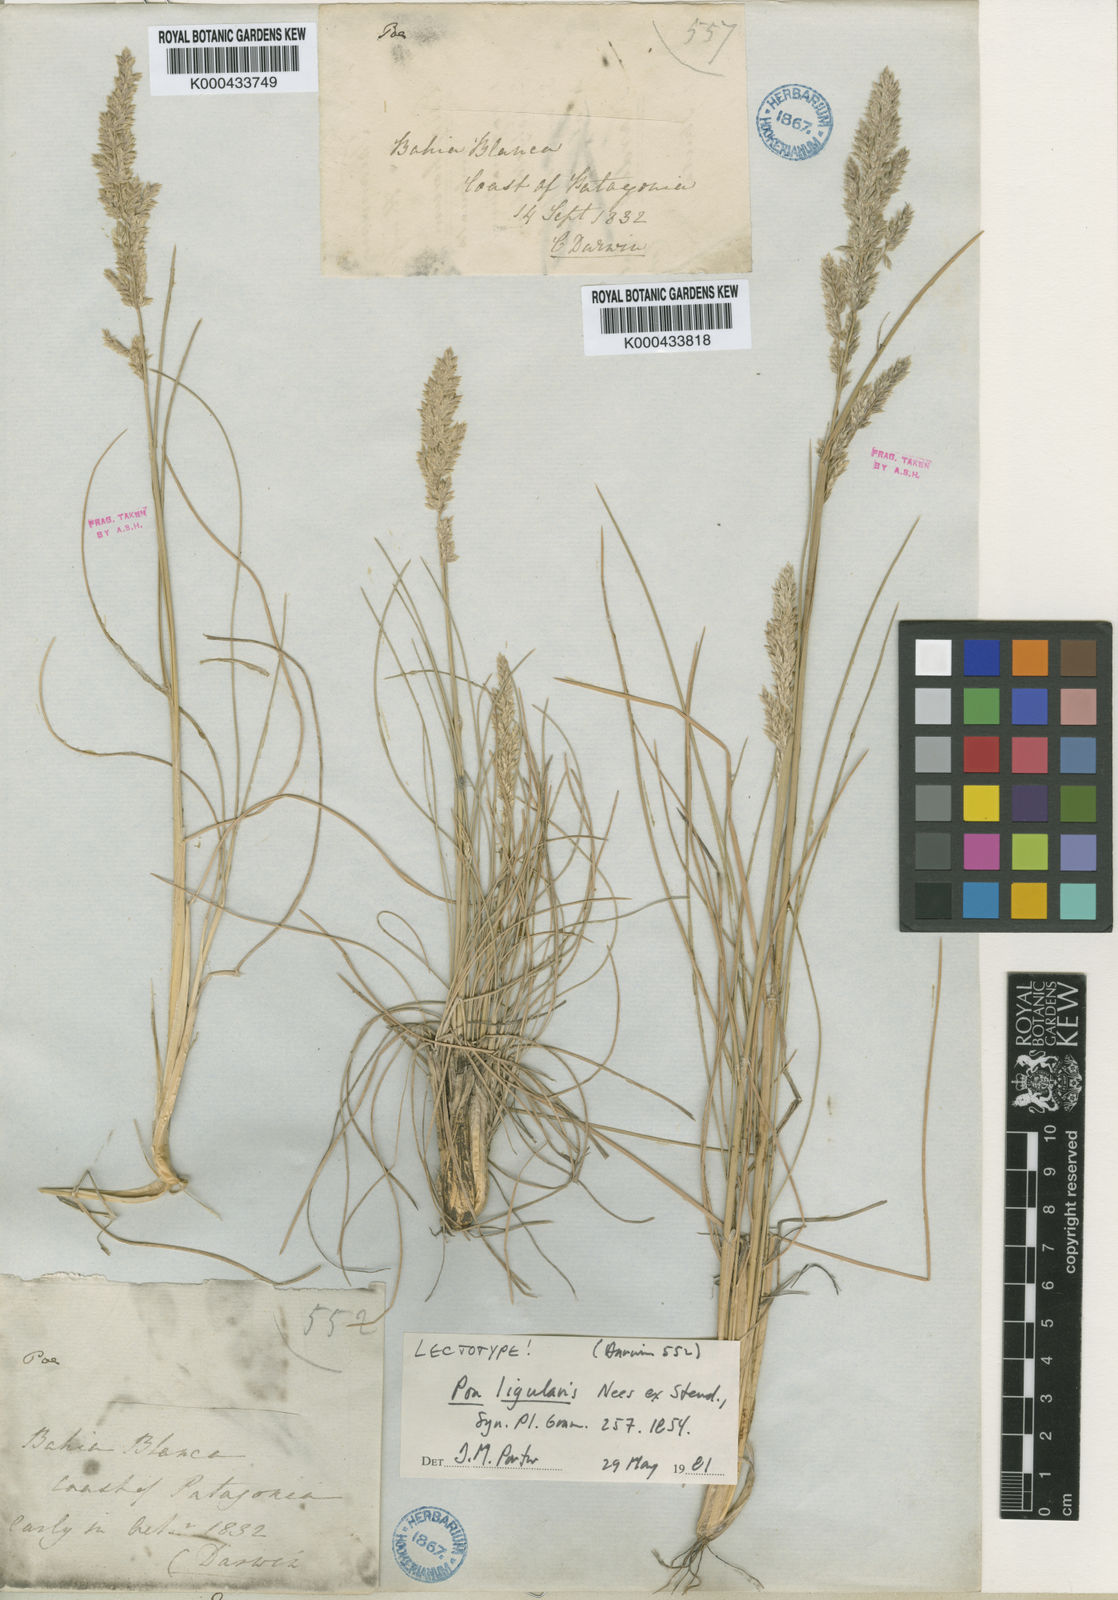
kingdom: Plantae
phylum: Tracheophyta
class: Liliopsida
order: Poales
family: Poaceae
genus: Poa
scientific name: Poa ligularis
